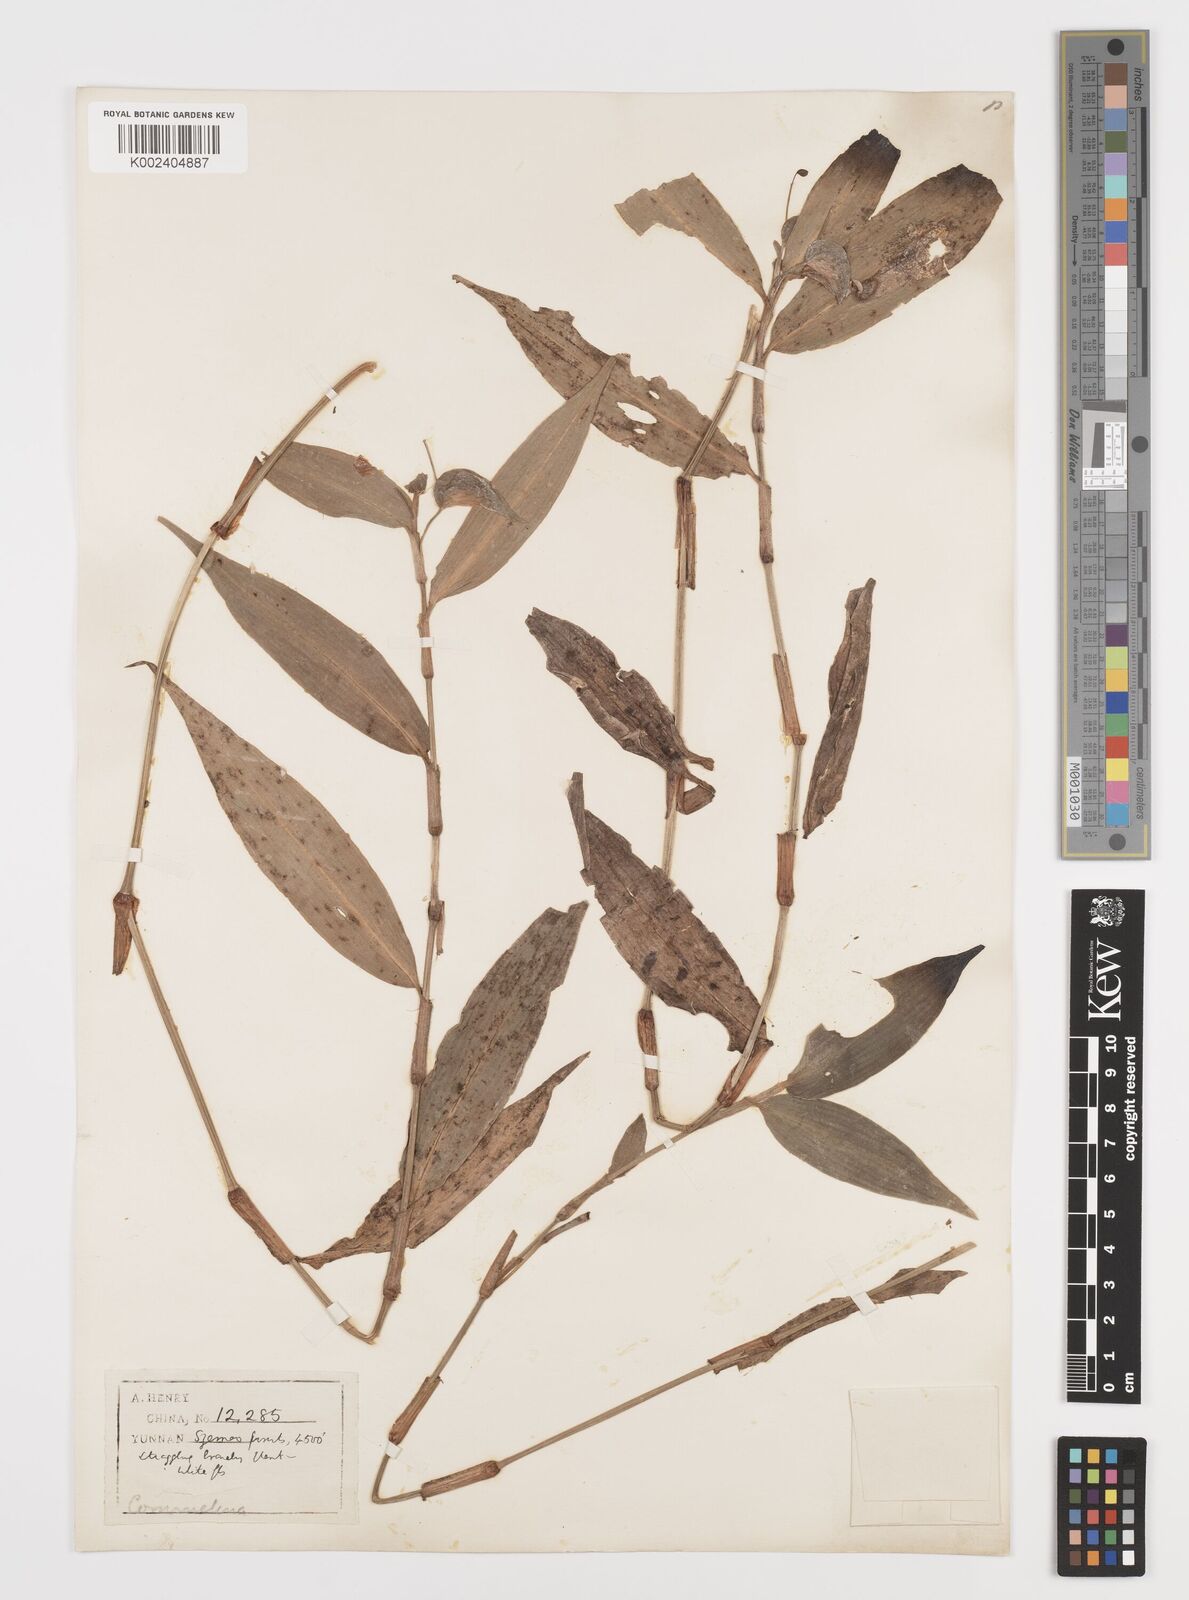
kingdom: Plantae
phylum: Tracheophyta
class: Liliopsida
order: Commelinales
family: Commelinaceae
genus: Commelina
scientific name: Commelina
